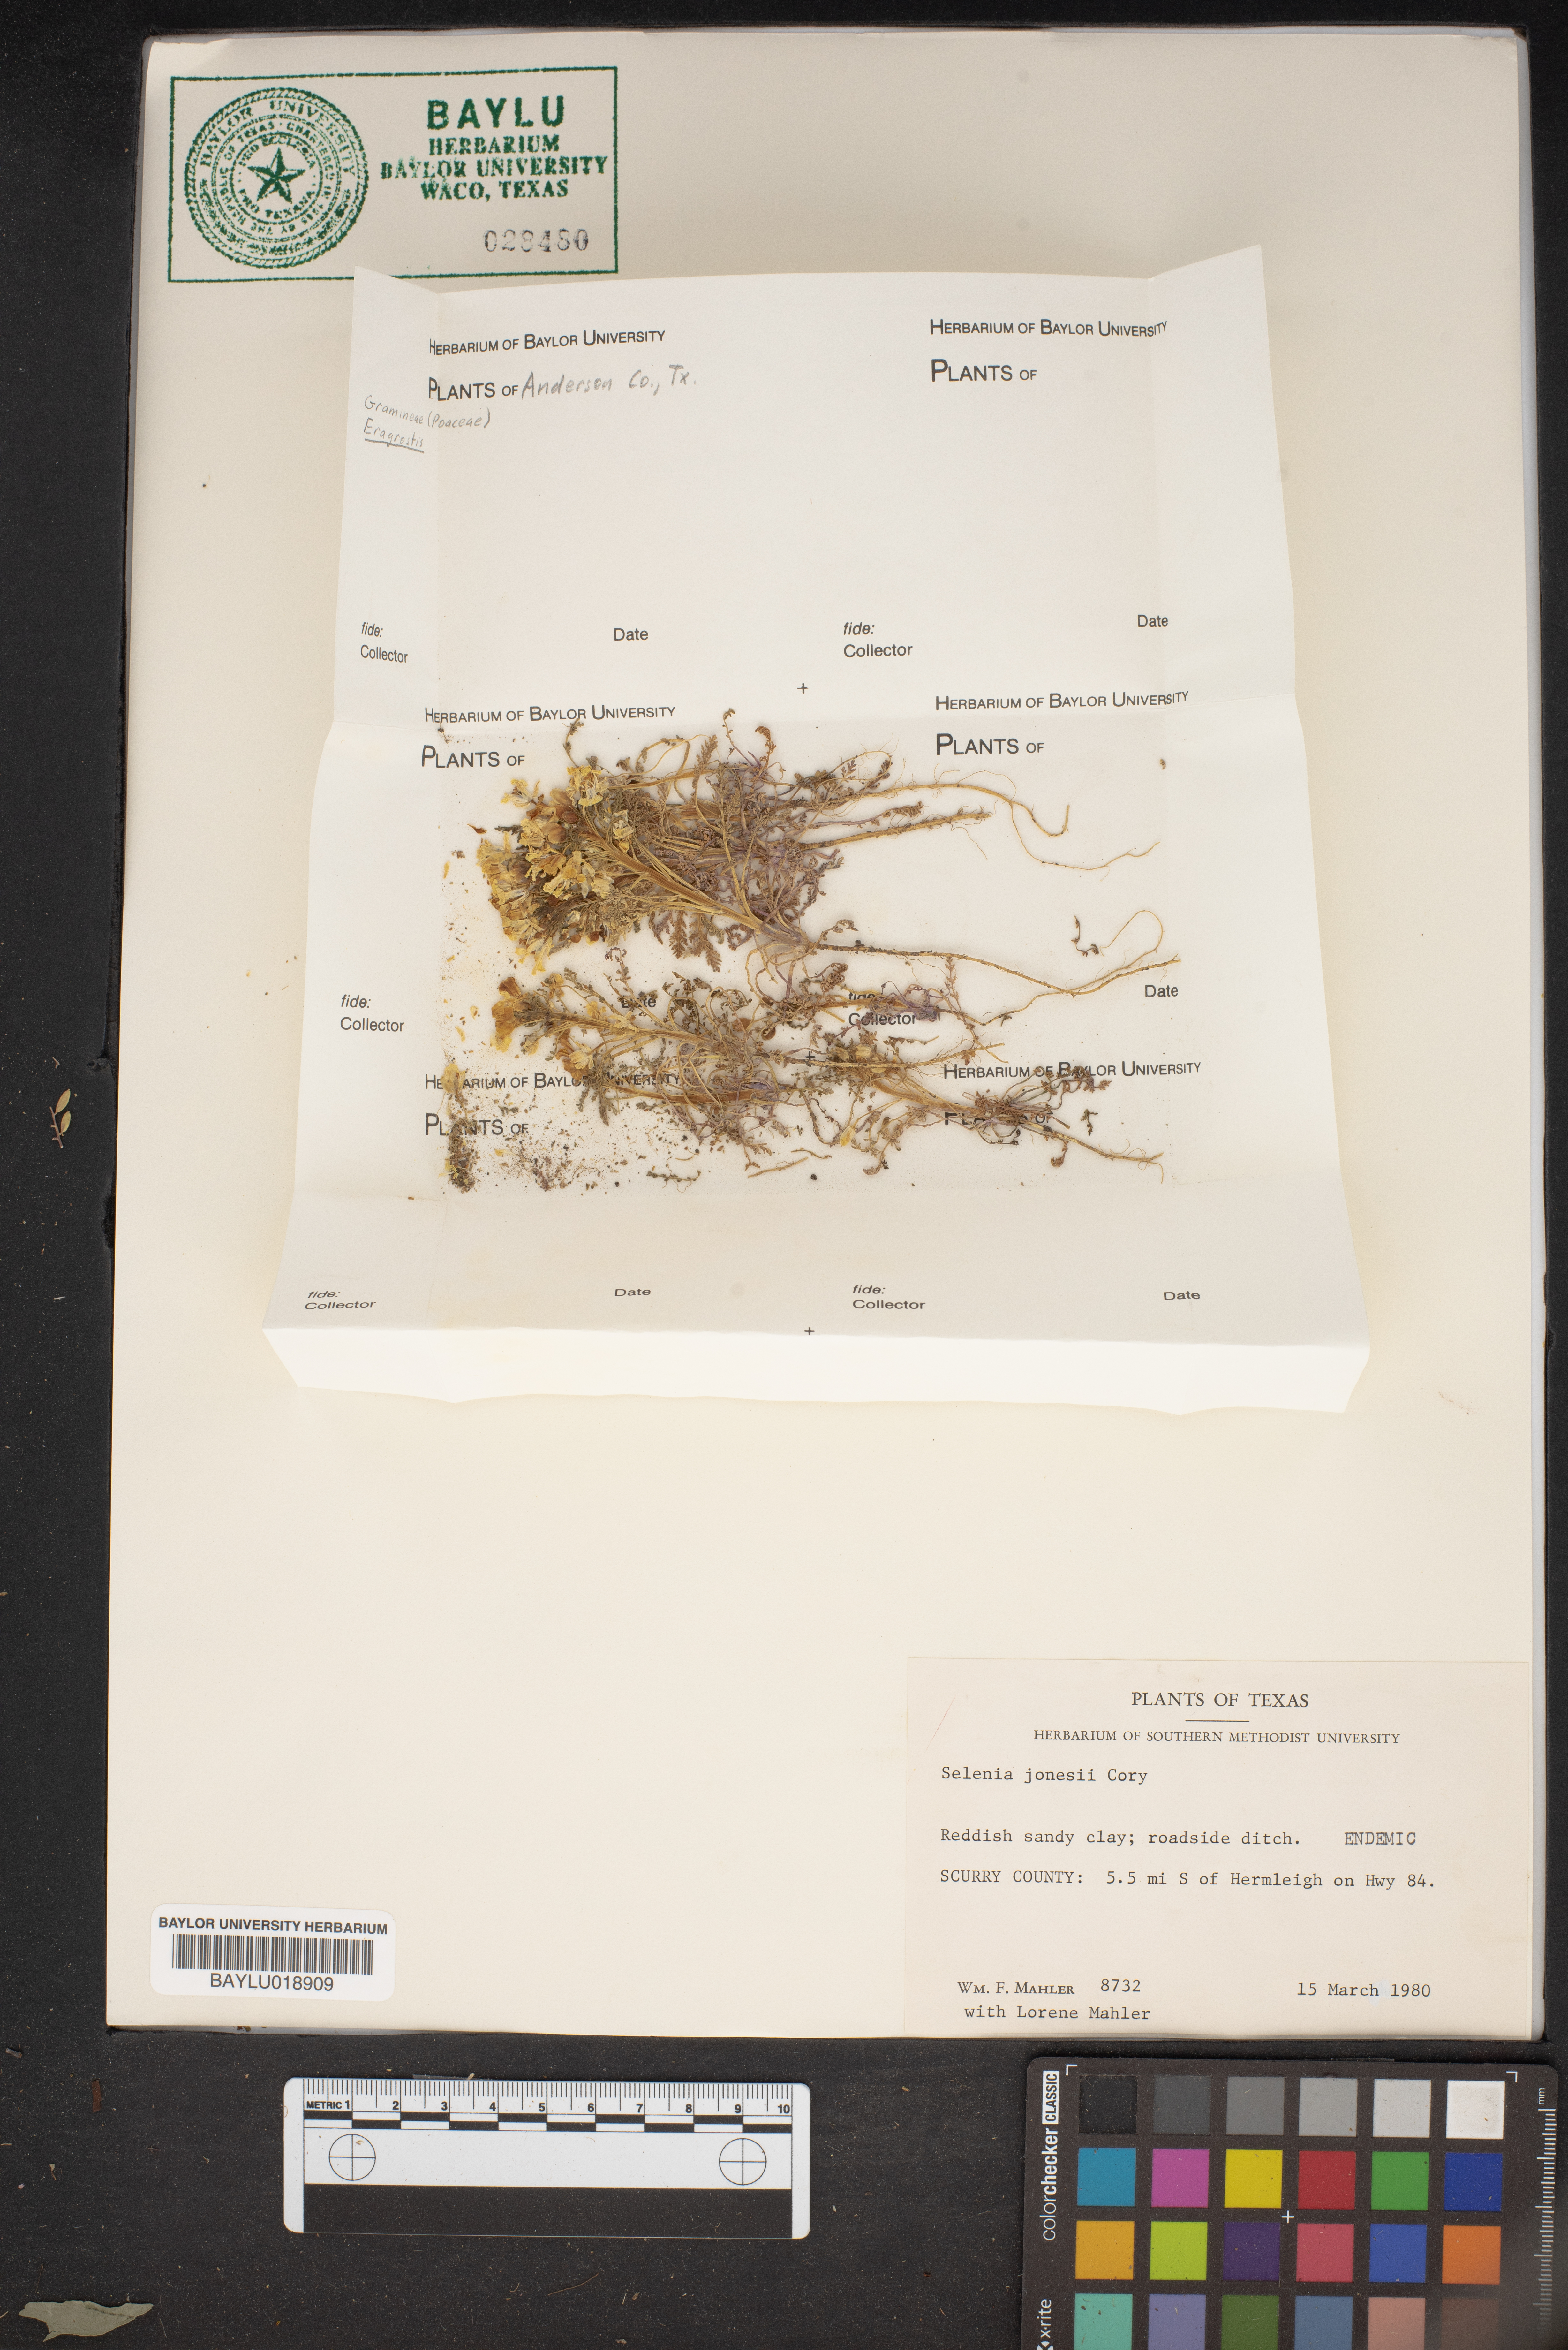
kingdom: Plantae
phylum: Tracheophyta
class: Magnoliopsida
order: Brassicales
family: Brassicaceae
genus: Selenia
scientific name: Selenia jonesii
